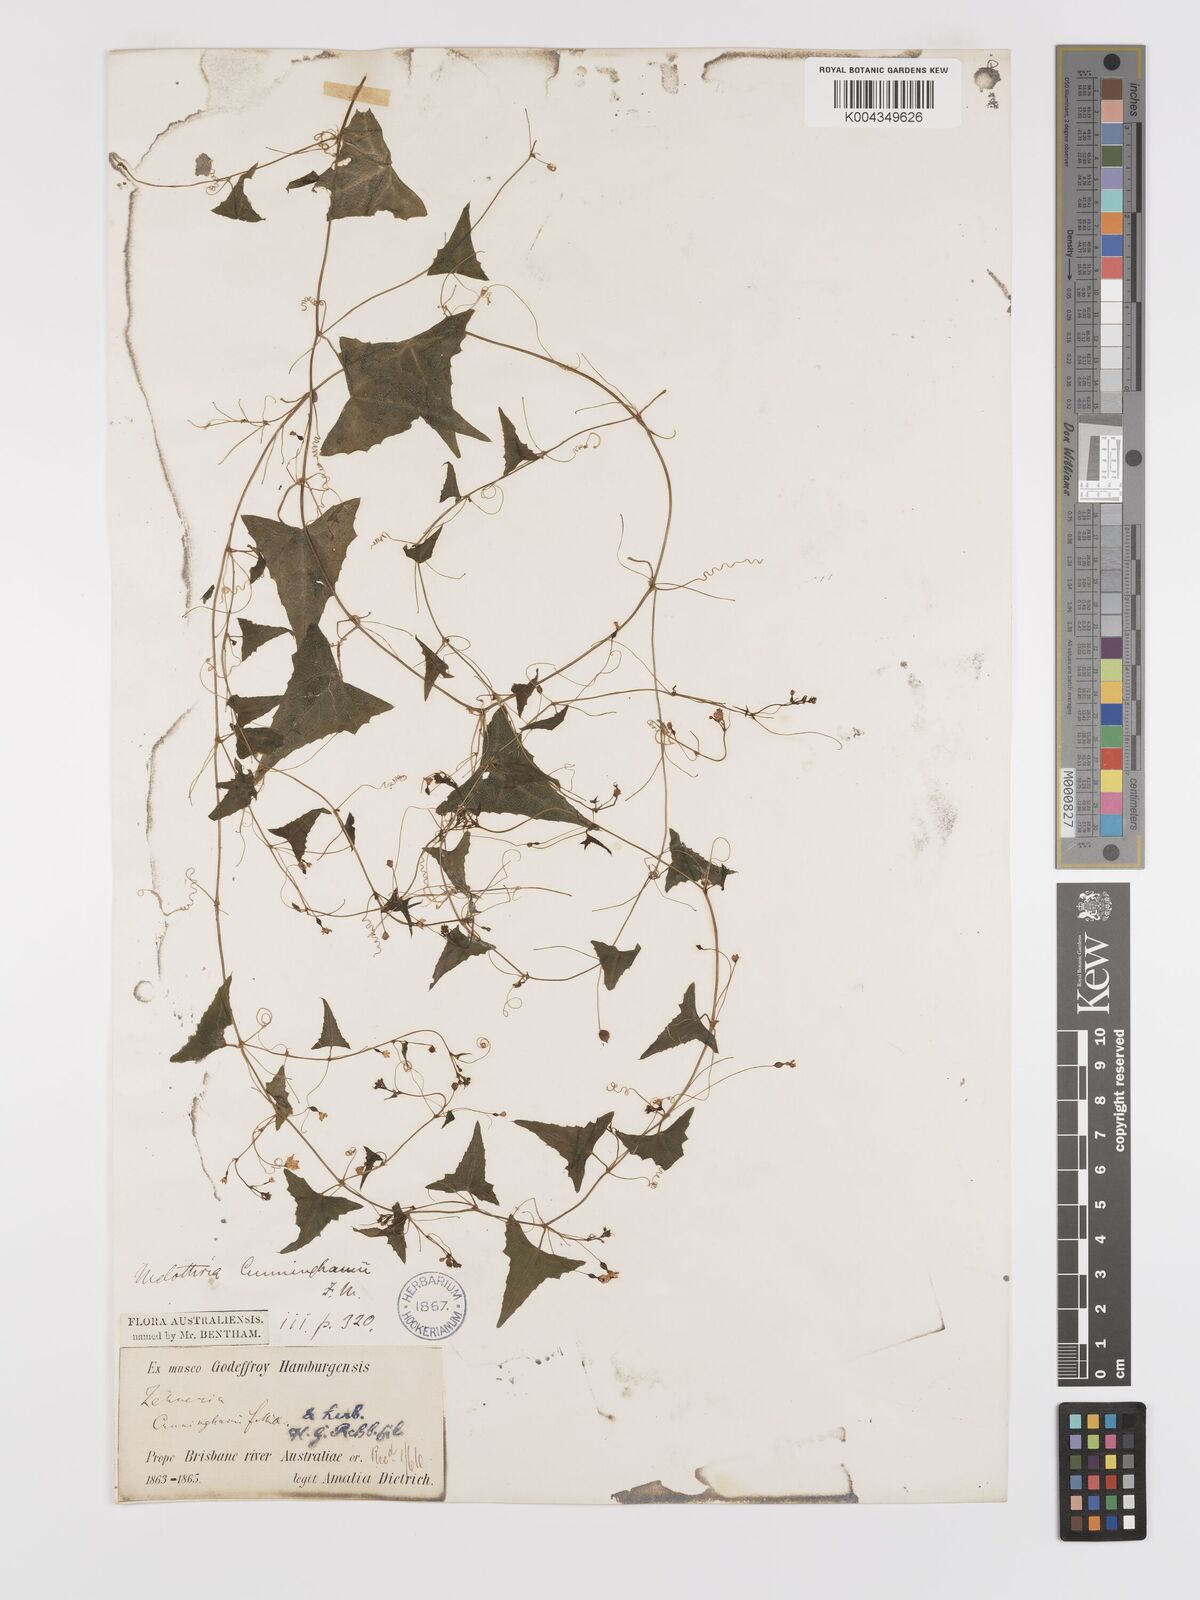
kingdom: Plantae
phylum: Tracheophyta
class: Magnoliopsida
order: Cucurbitales
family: Cucurbitaceae
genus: Zehneria
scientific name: Zehneria cunninghamii
